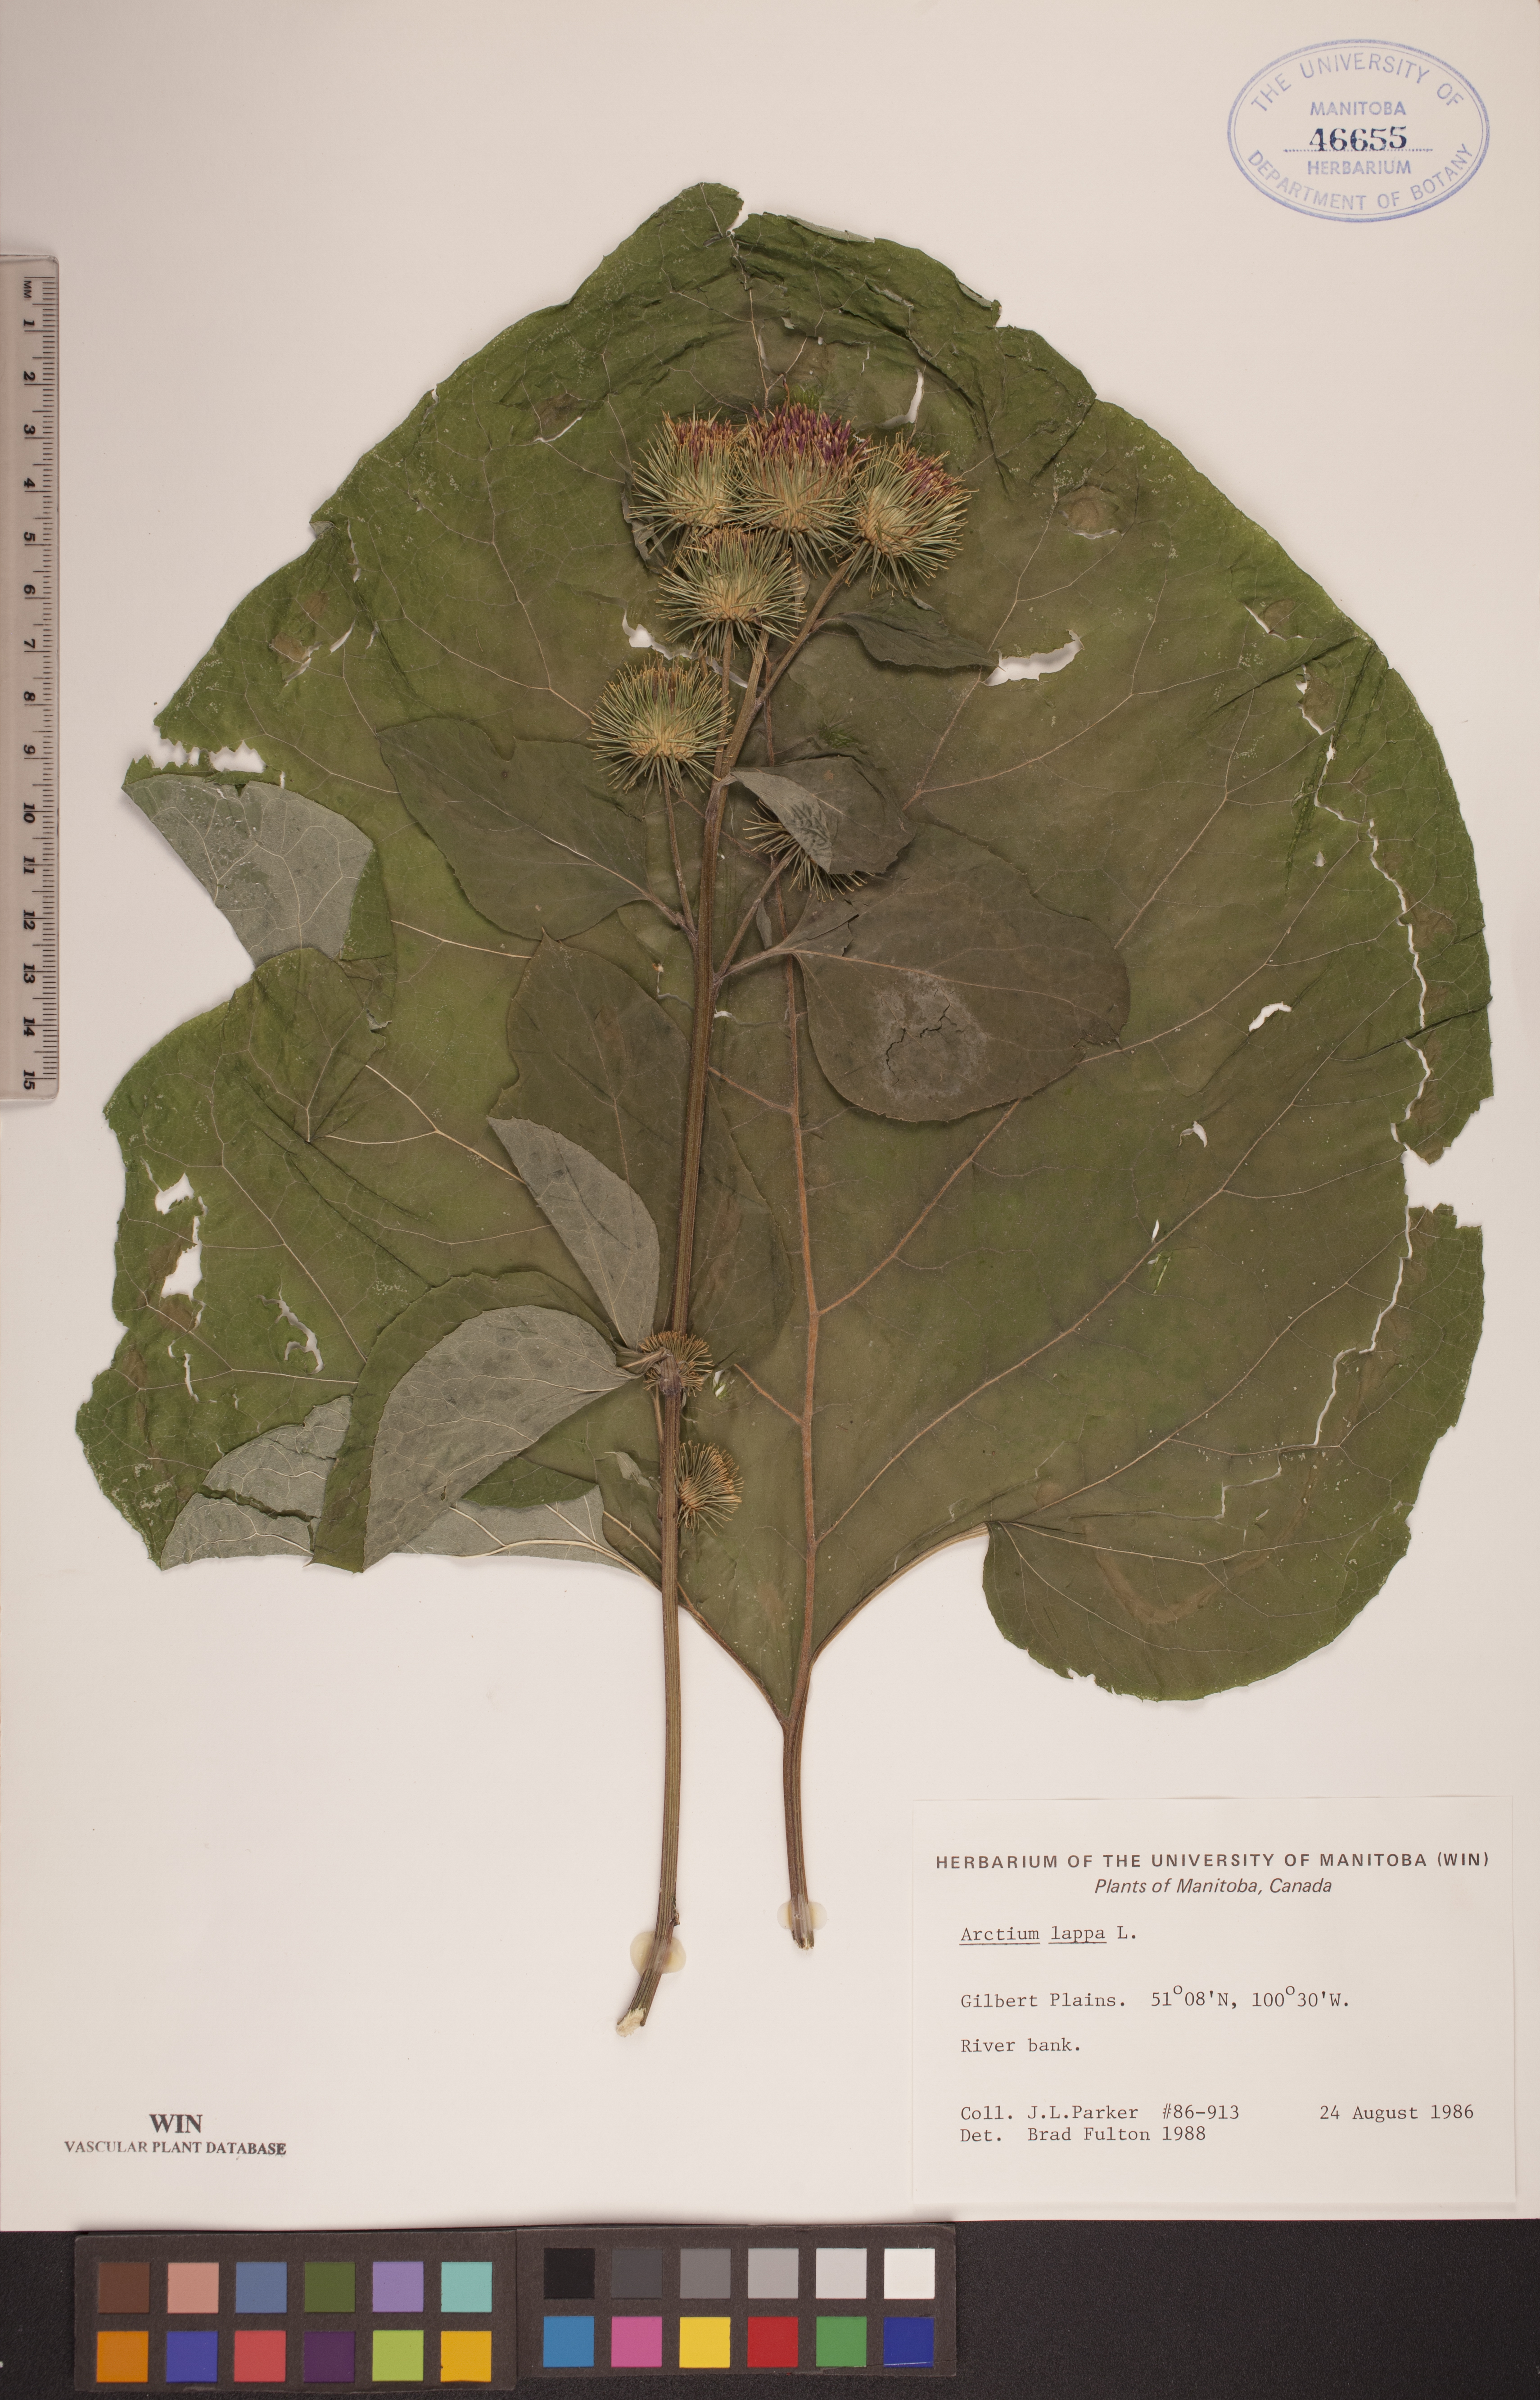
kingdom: Plantae
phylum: Tracheophyta
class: Magnoliopsida
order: Asterales
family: Asteraceae
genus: Arctium
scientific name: Arctium lappa
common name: Greater burdock
